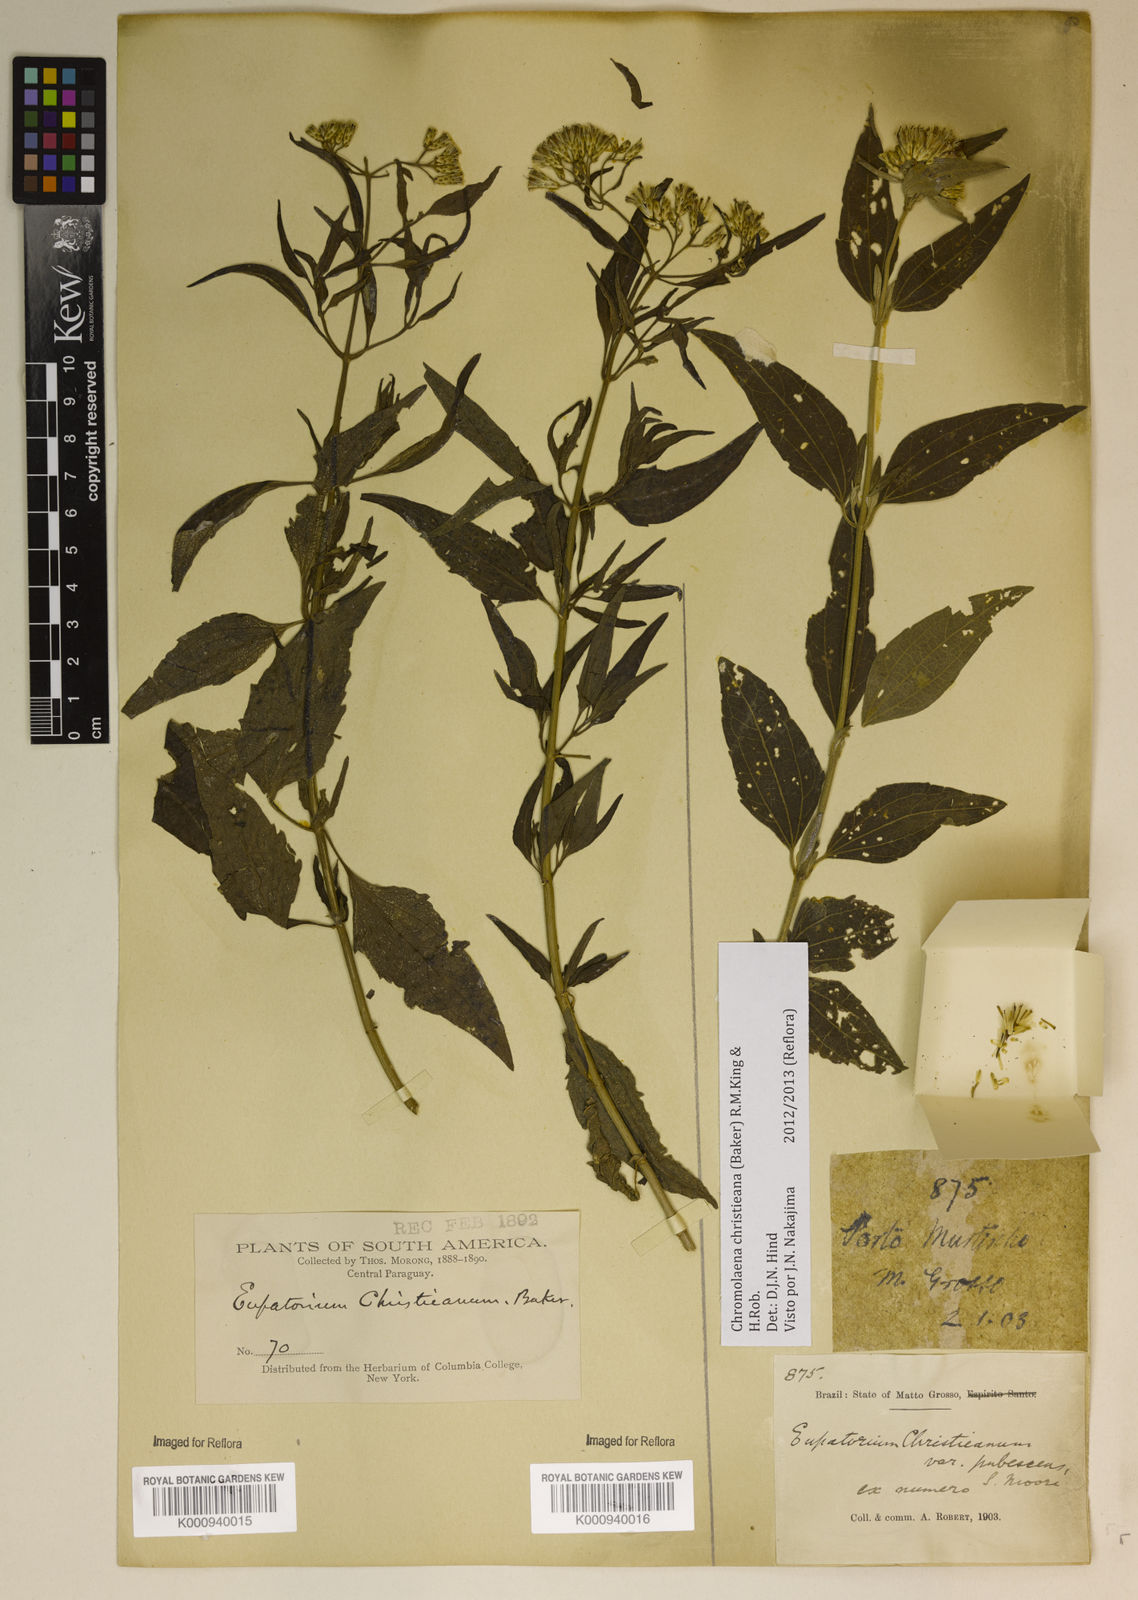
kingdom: Plantae
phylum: Tracheophyta
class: Magnoliopsida
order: Asterales
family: Asteraceae
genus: Chromolaena
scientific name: Chromolaena christieana
